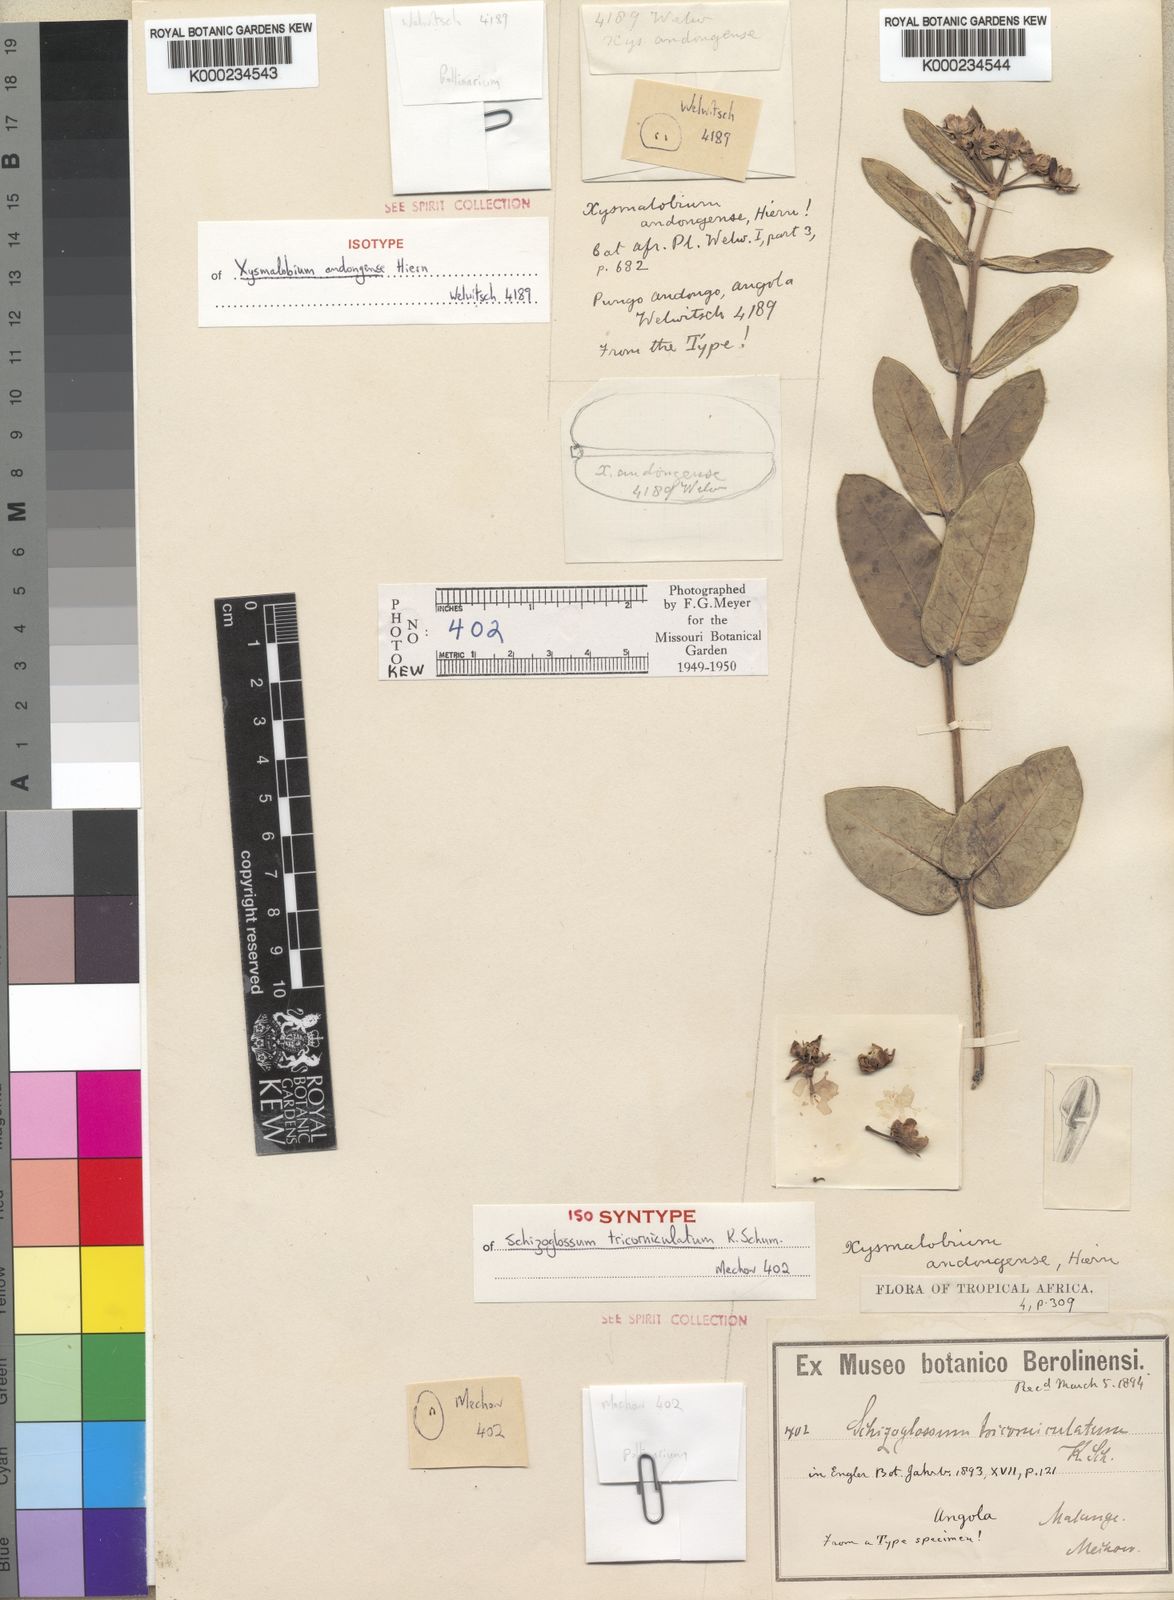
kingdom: Plantae
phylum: Tracheophyta
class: Magnoliopsida
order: Gentianales
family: Apocynaceae
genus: Xysmalobium
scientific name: Xysmalobium andongense
